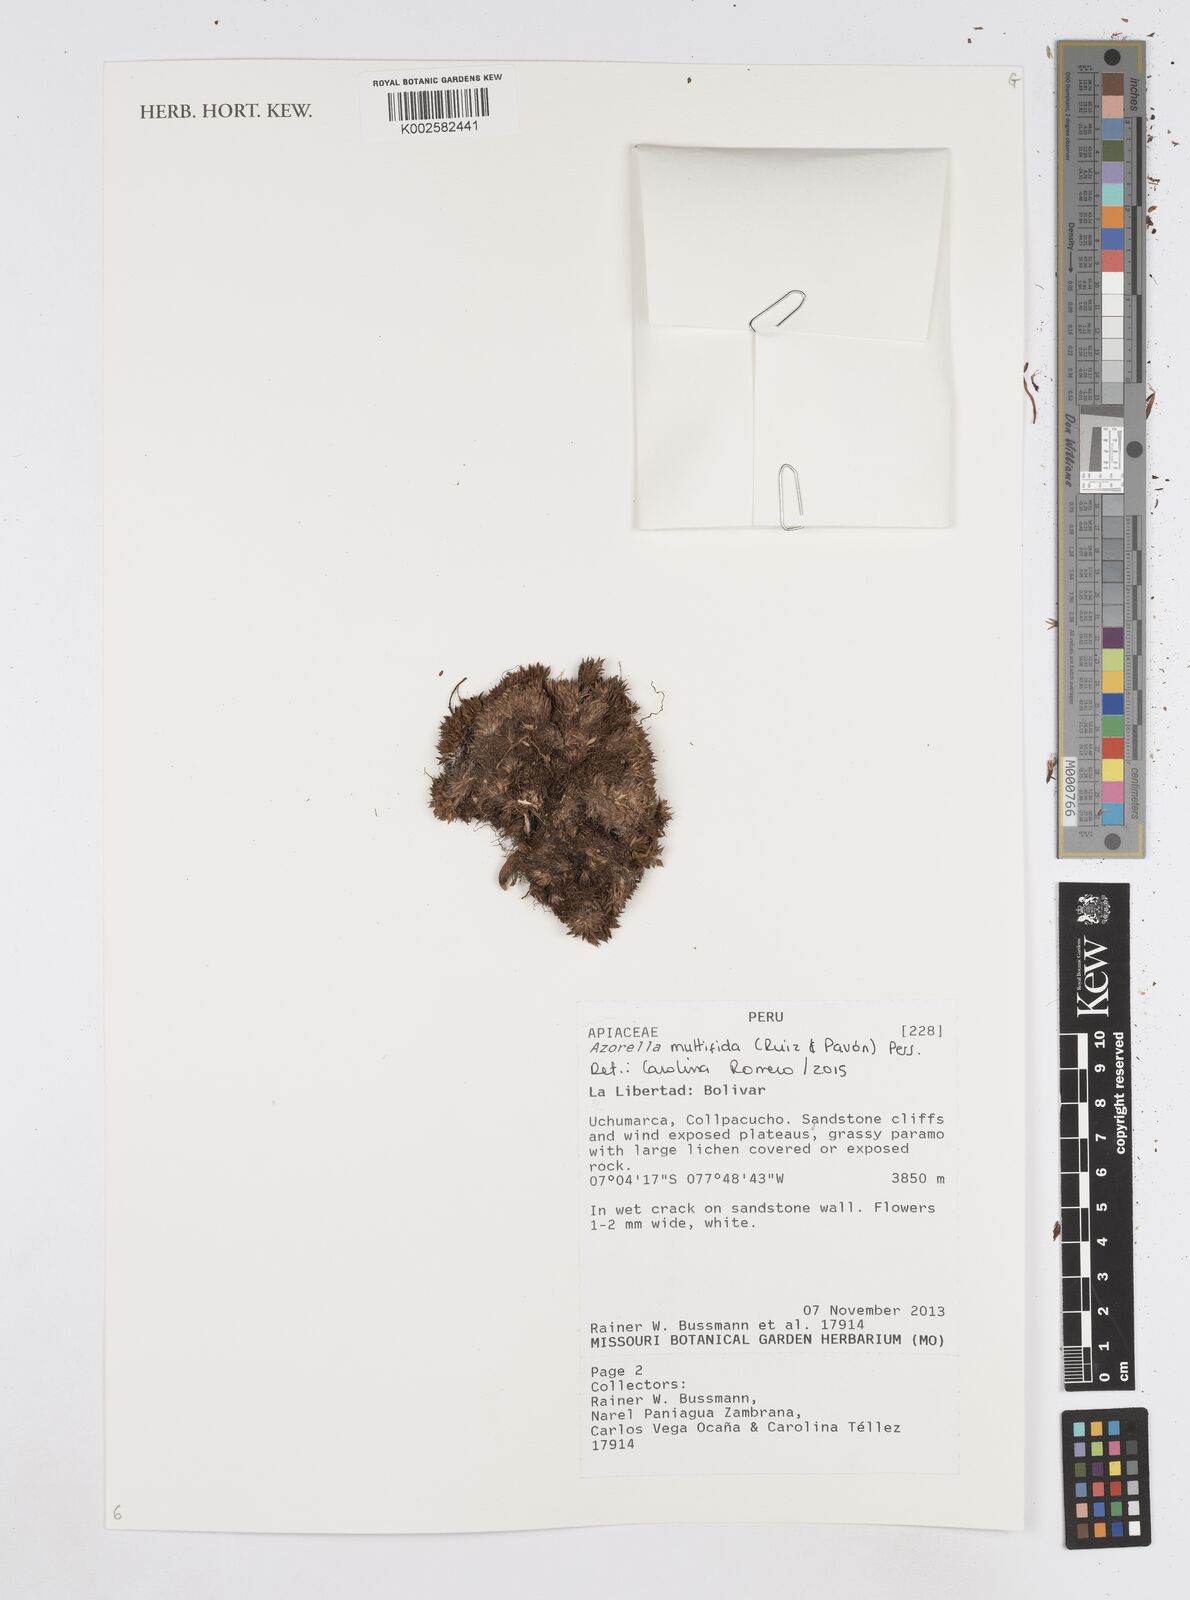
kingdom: Plantae
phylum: Tracheophyta
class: Magnoliopsida
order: Apiales
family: Apiaceae
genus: Azorella
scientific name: Azorella multifida
